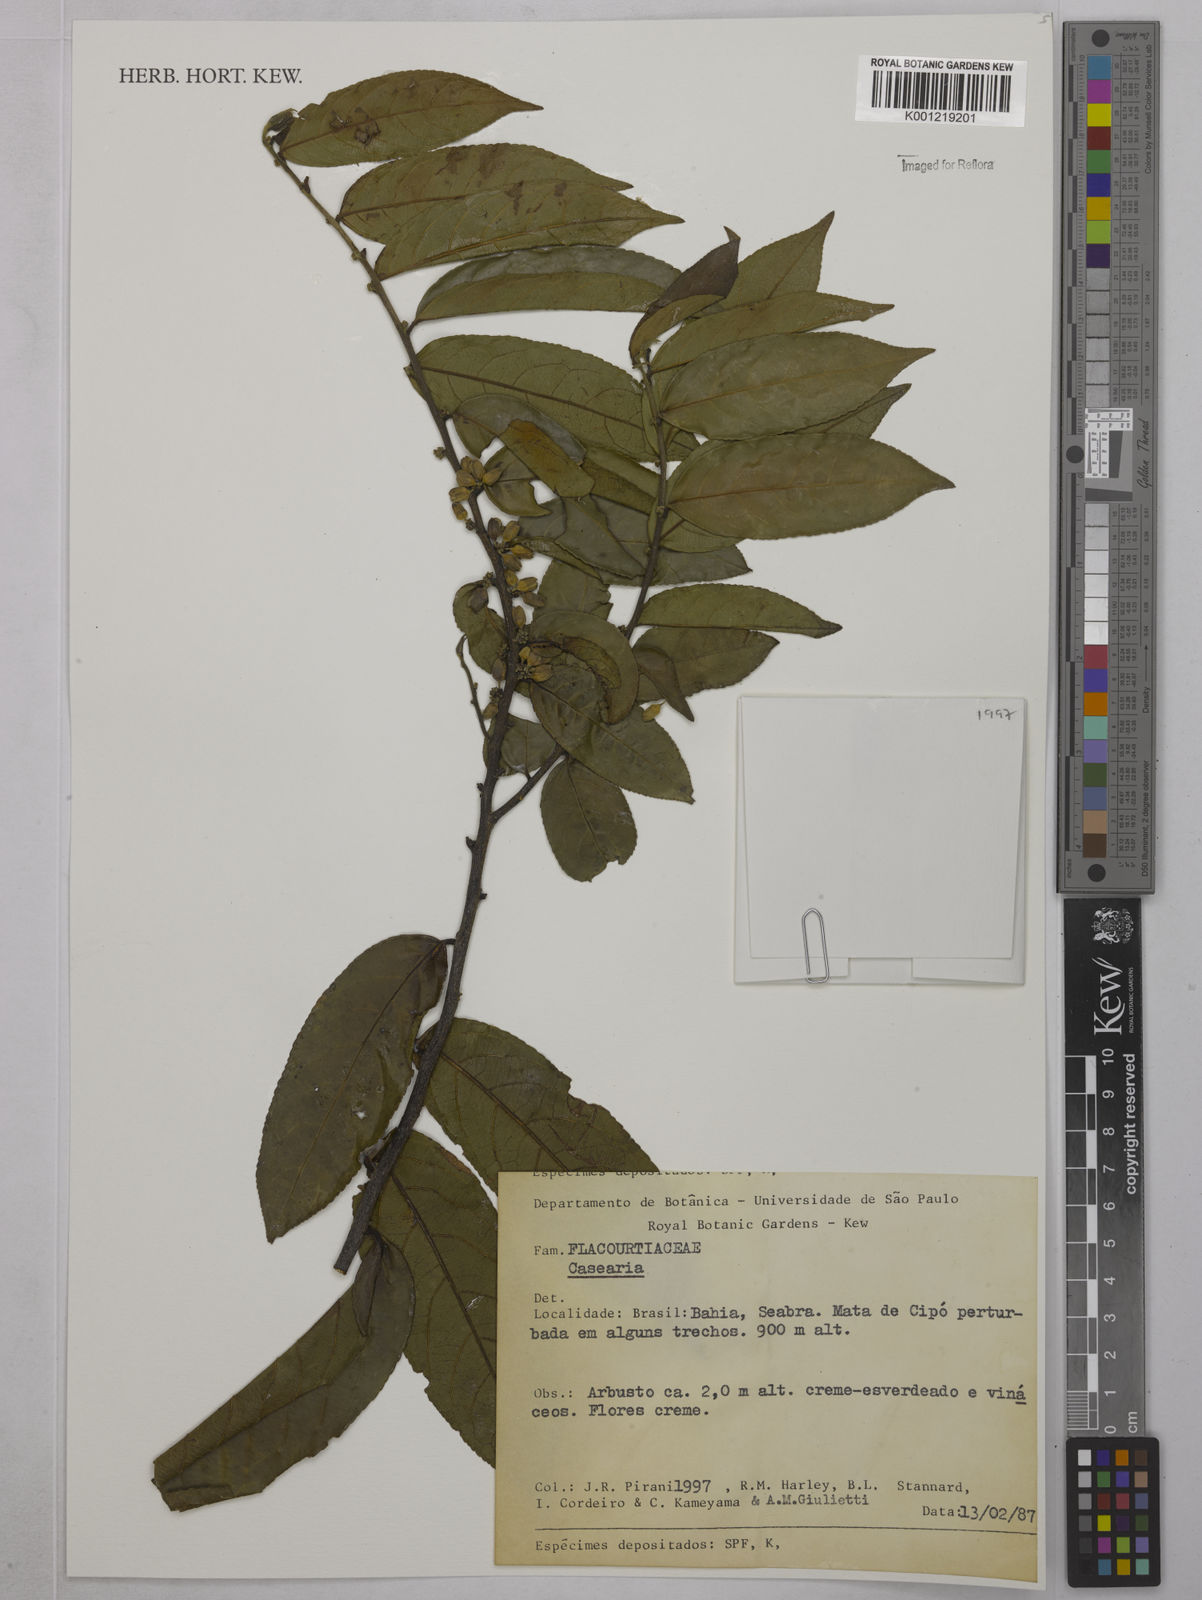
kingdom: Plantae
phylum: Tracheophyta
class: Magnoliopsida
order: Malpighiales
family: Salicaceae
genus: Casearia
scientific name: Casearia
